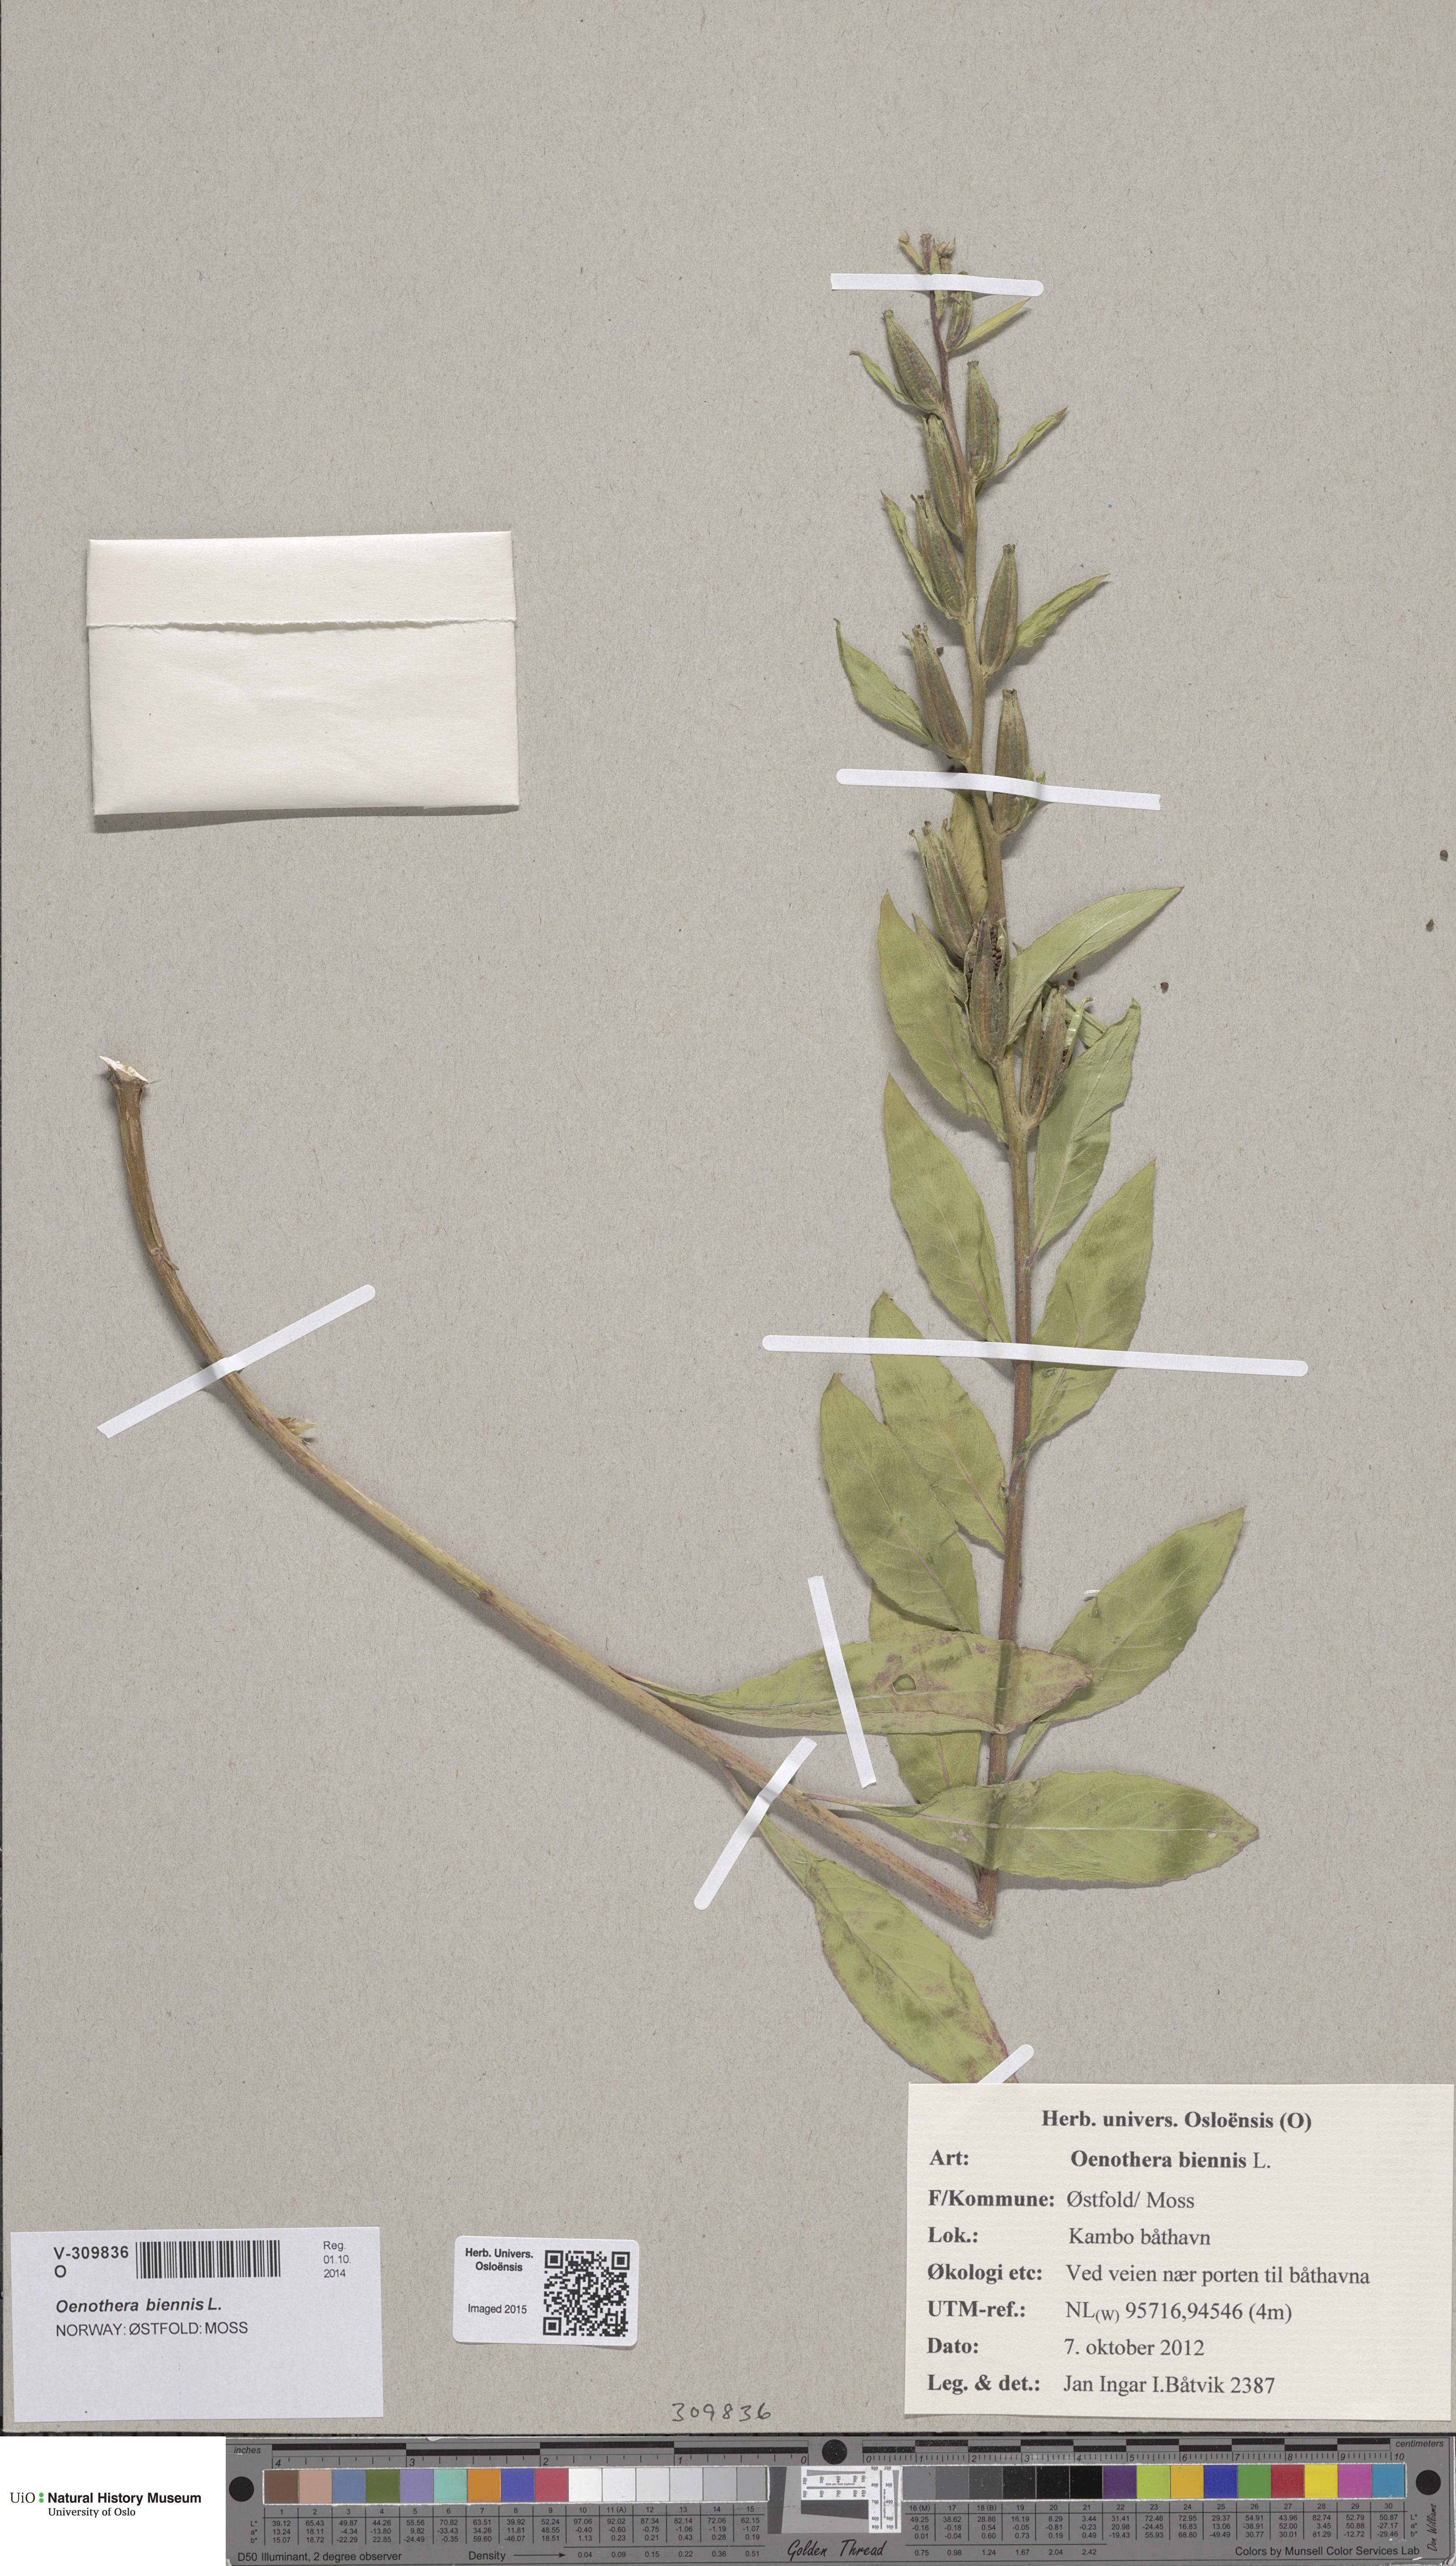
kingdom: Plantae
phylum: Tracheophyta
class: Magnoliopsida
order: Myrtales
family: Onagraceae
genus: Oenothera
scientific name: Oenothera biennis
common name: Common evening-primrose
